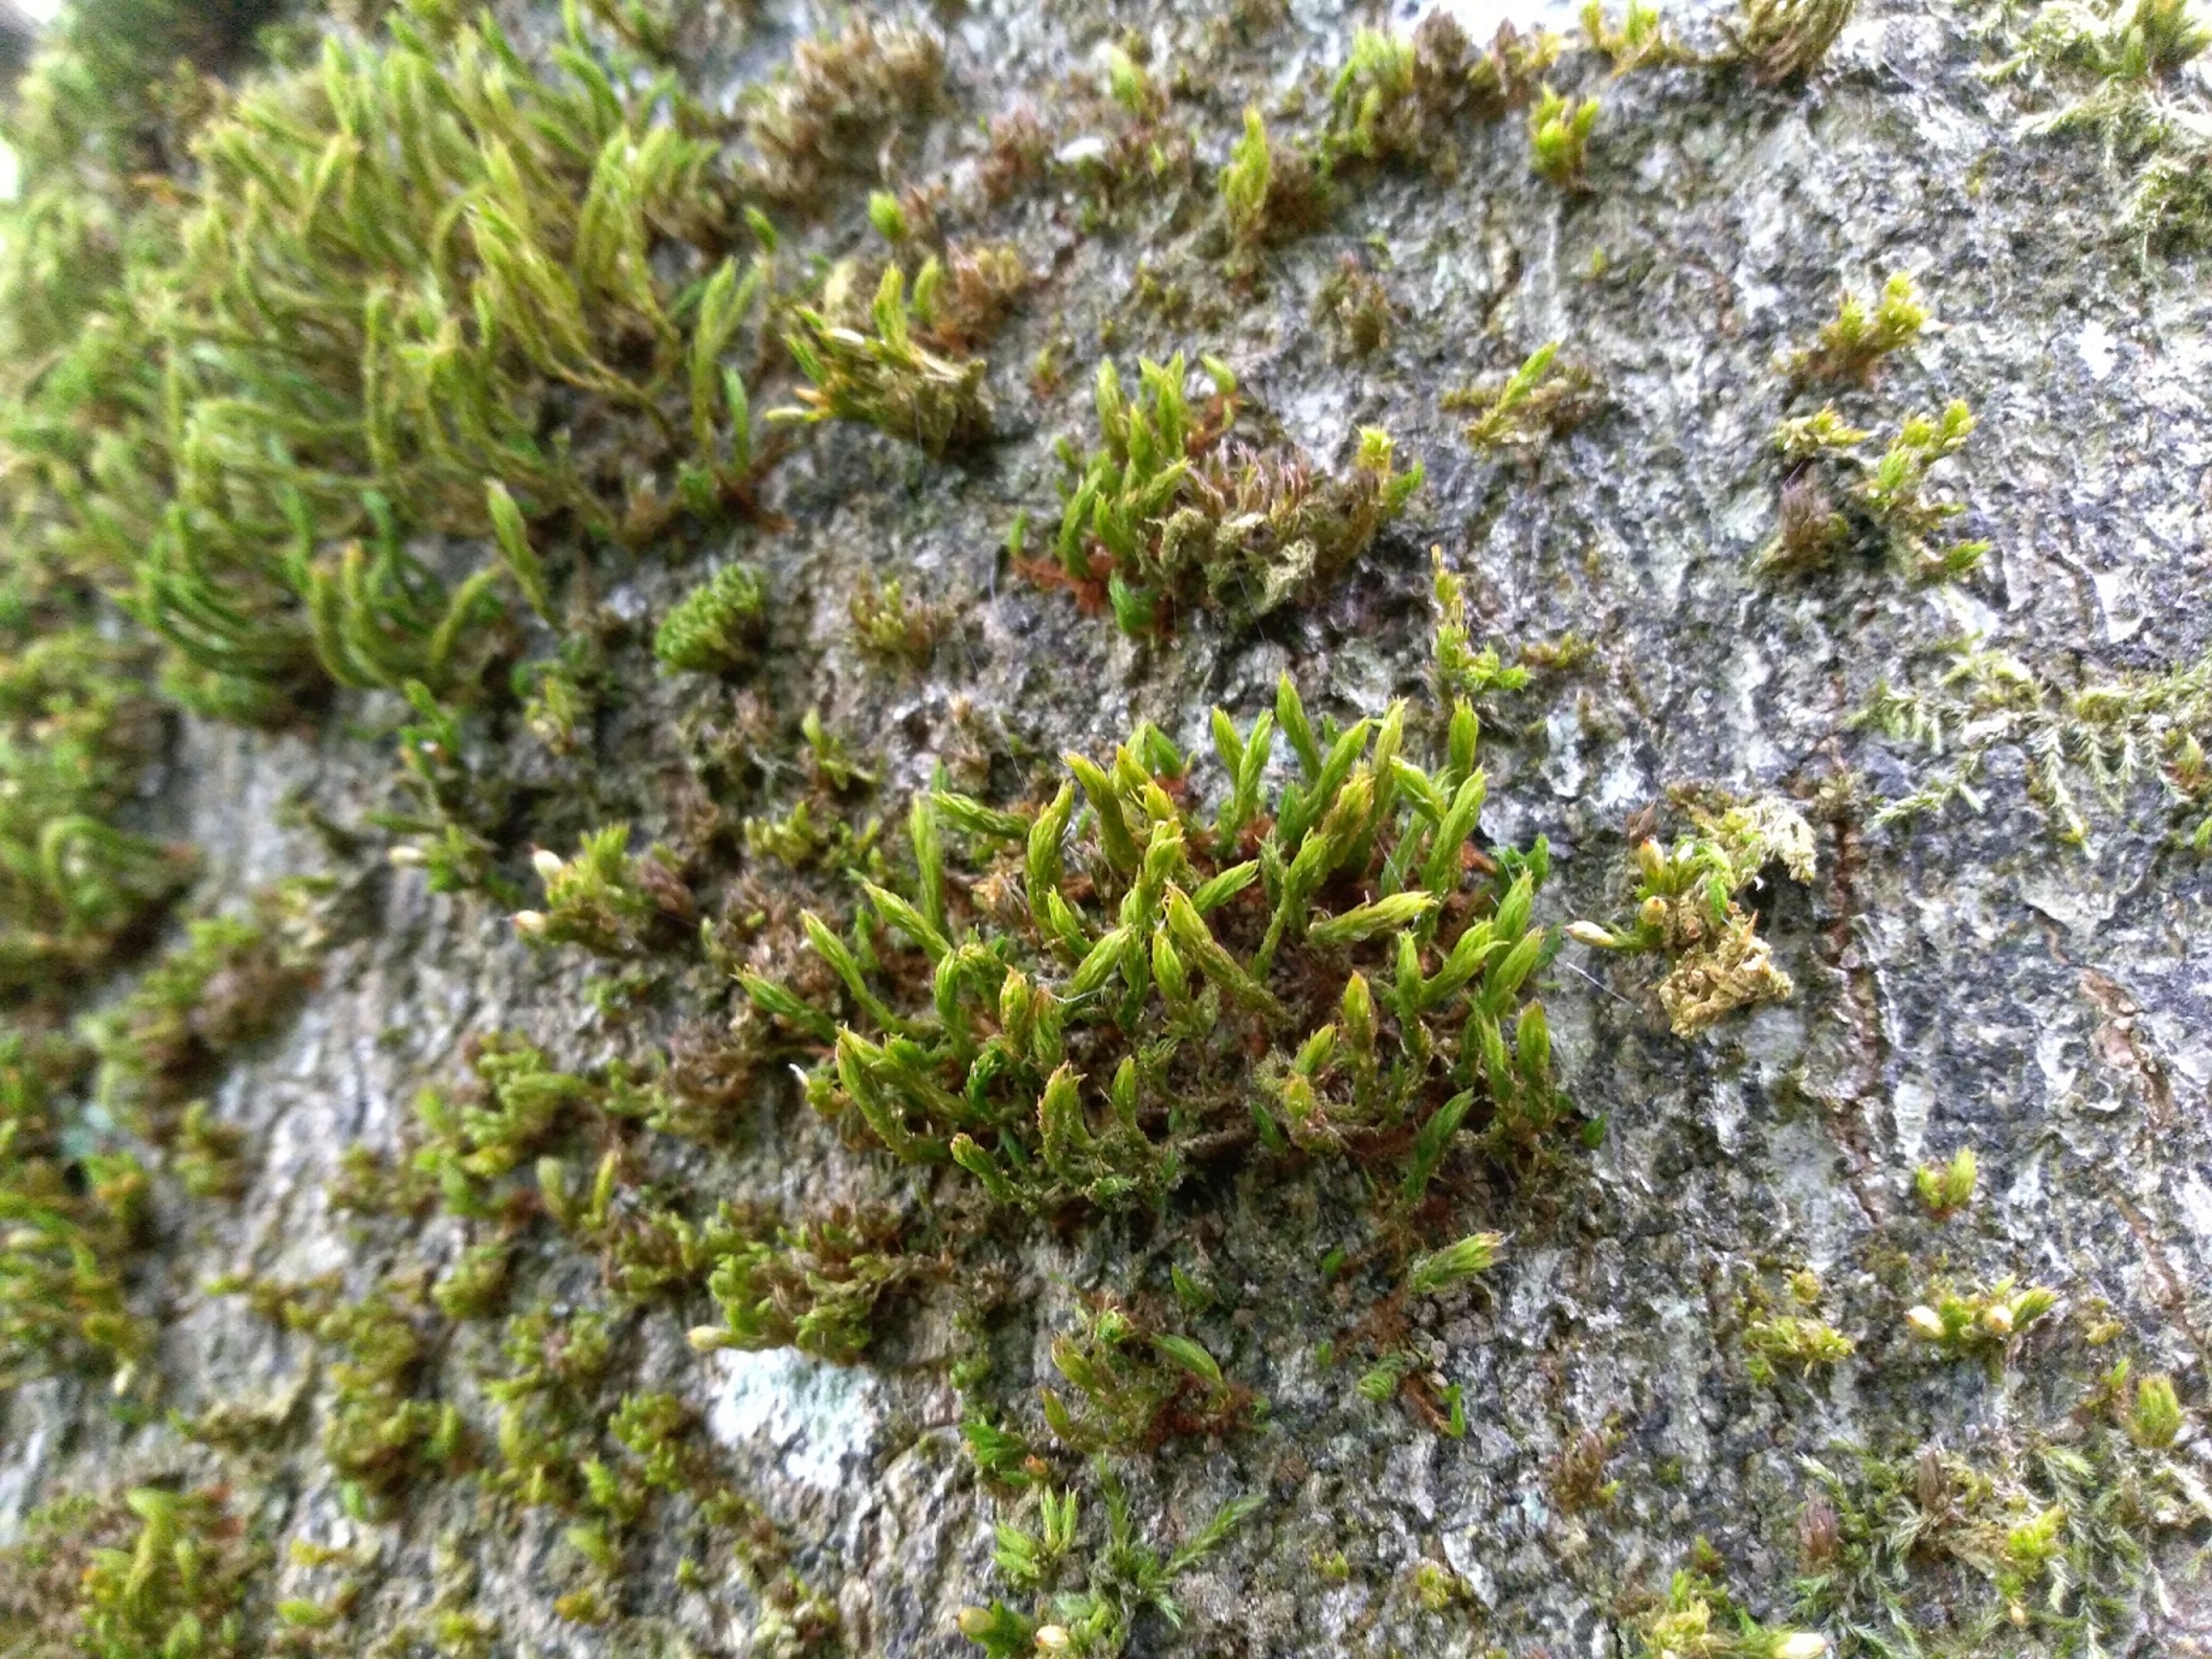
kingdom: Plantae
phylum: Bryophyta
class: Bryopsida
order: Orthotrichales
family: Orthotrichaceae
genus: Pulvigera
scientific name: Pulvigera lyellii
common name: Stor furehætte
